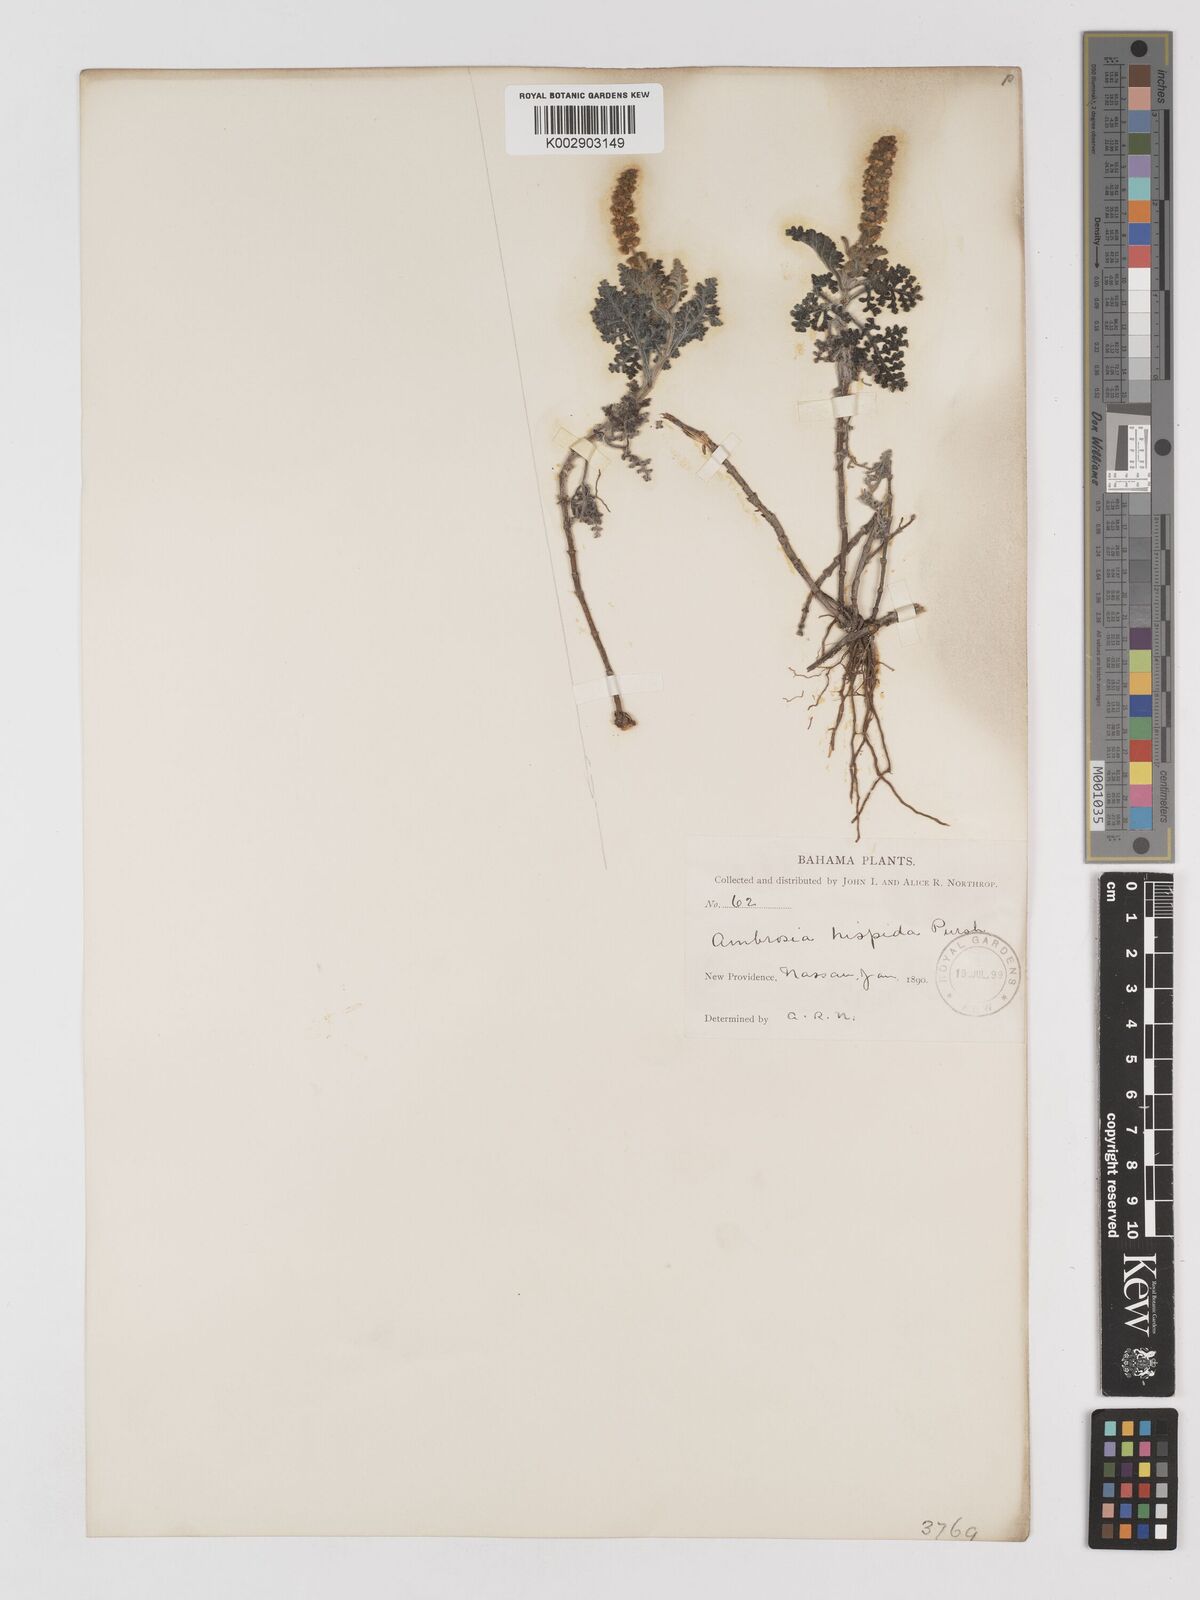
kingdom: Plantae
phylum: Tracheophyta
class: Magnoliopsida
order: Asterales
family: Asteraceae
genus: Ambrosia
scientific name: Ambrosia hispida
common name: Coastal ragweed
